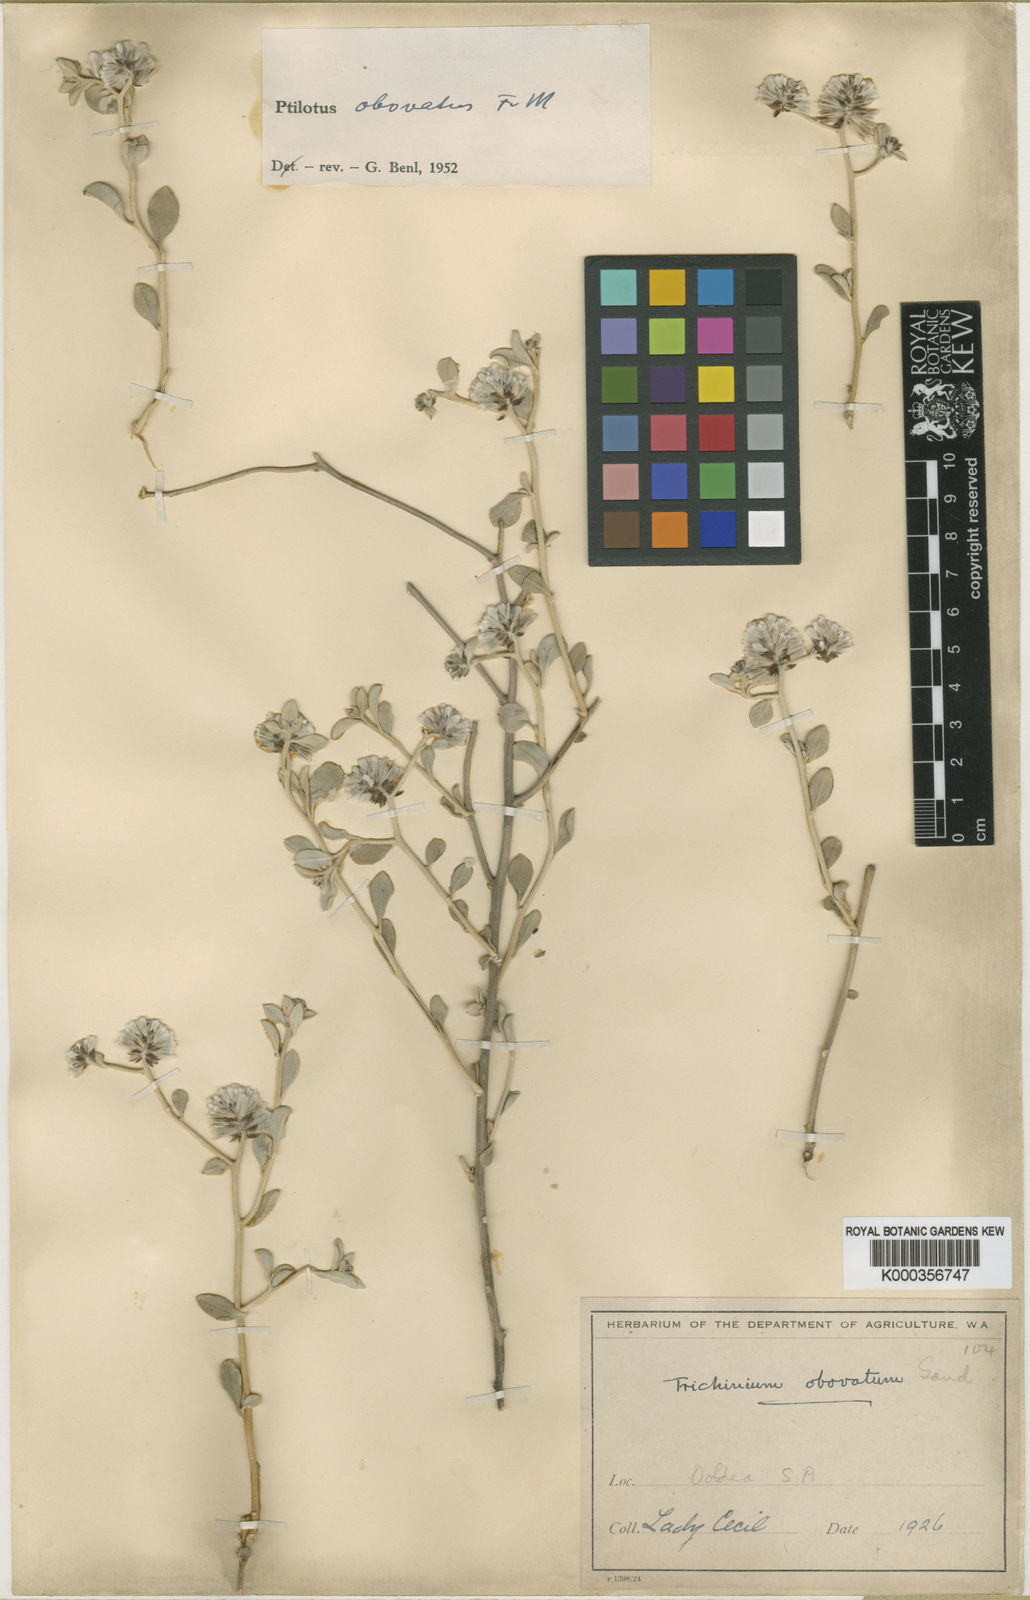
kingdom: Plantae
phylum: Tracheophyta
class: Magnoliopsida
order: Caryophyllales
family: Amaranthaceae
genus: Ptilotus
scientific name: Ptilotus obovatus
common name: Cottonbush
